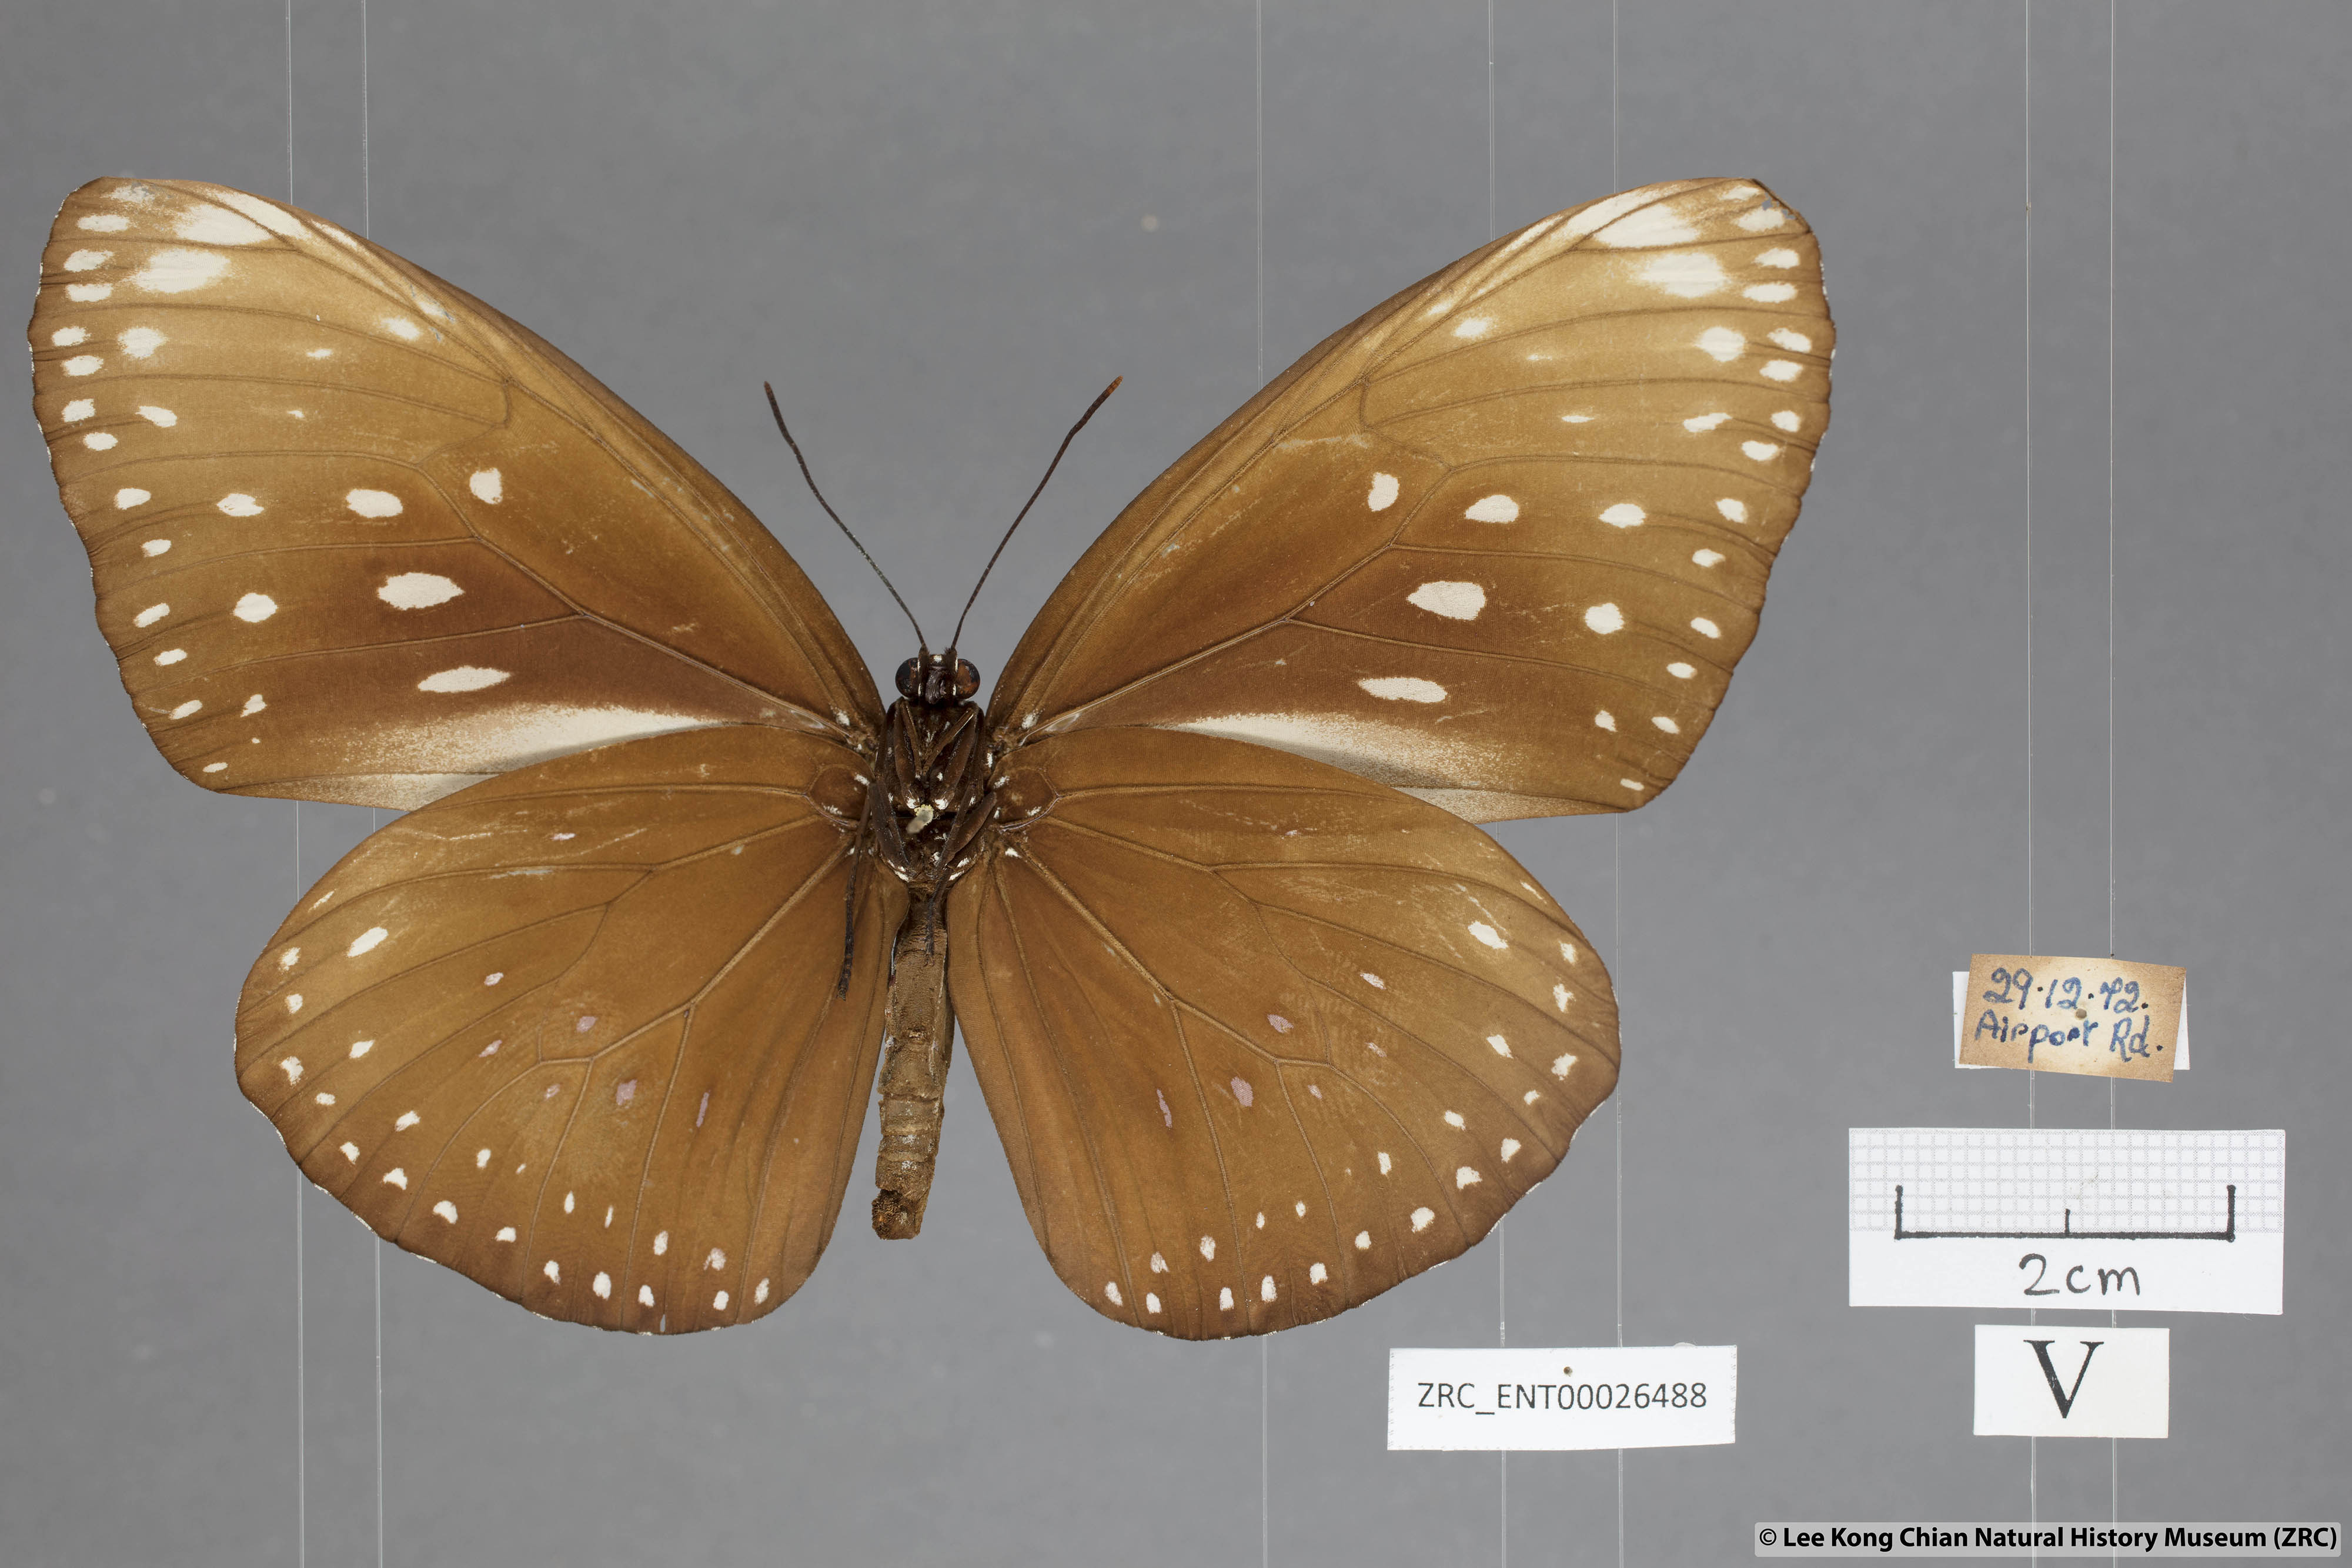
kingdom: Animalia
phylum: Arthropoda
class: Insecta
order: Lepidoptera
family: Nymphalidae
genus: Euploea
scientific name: Euploea phaenareta
